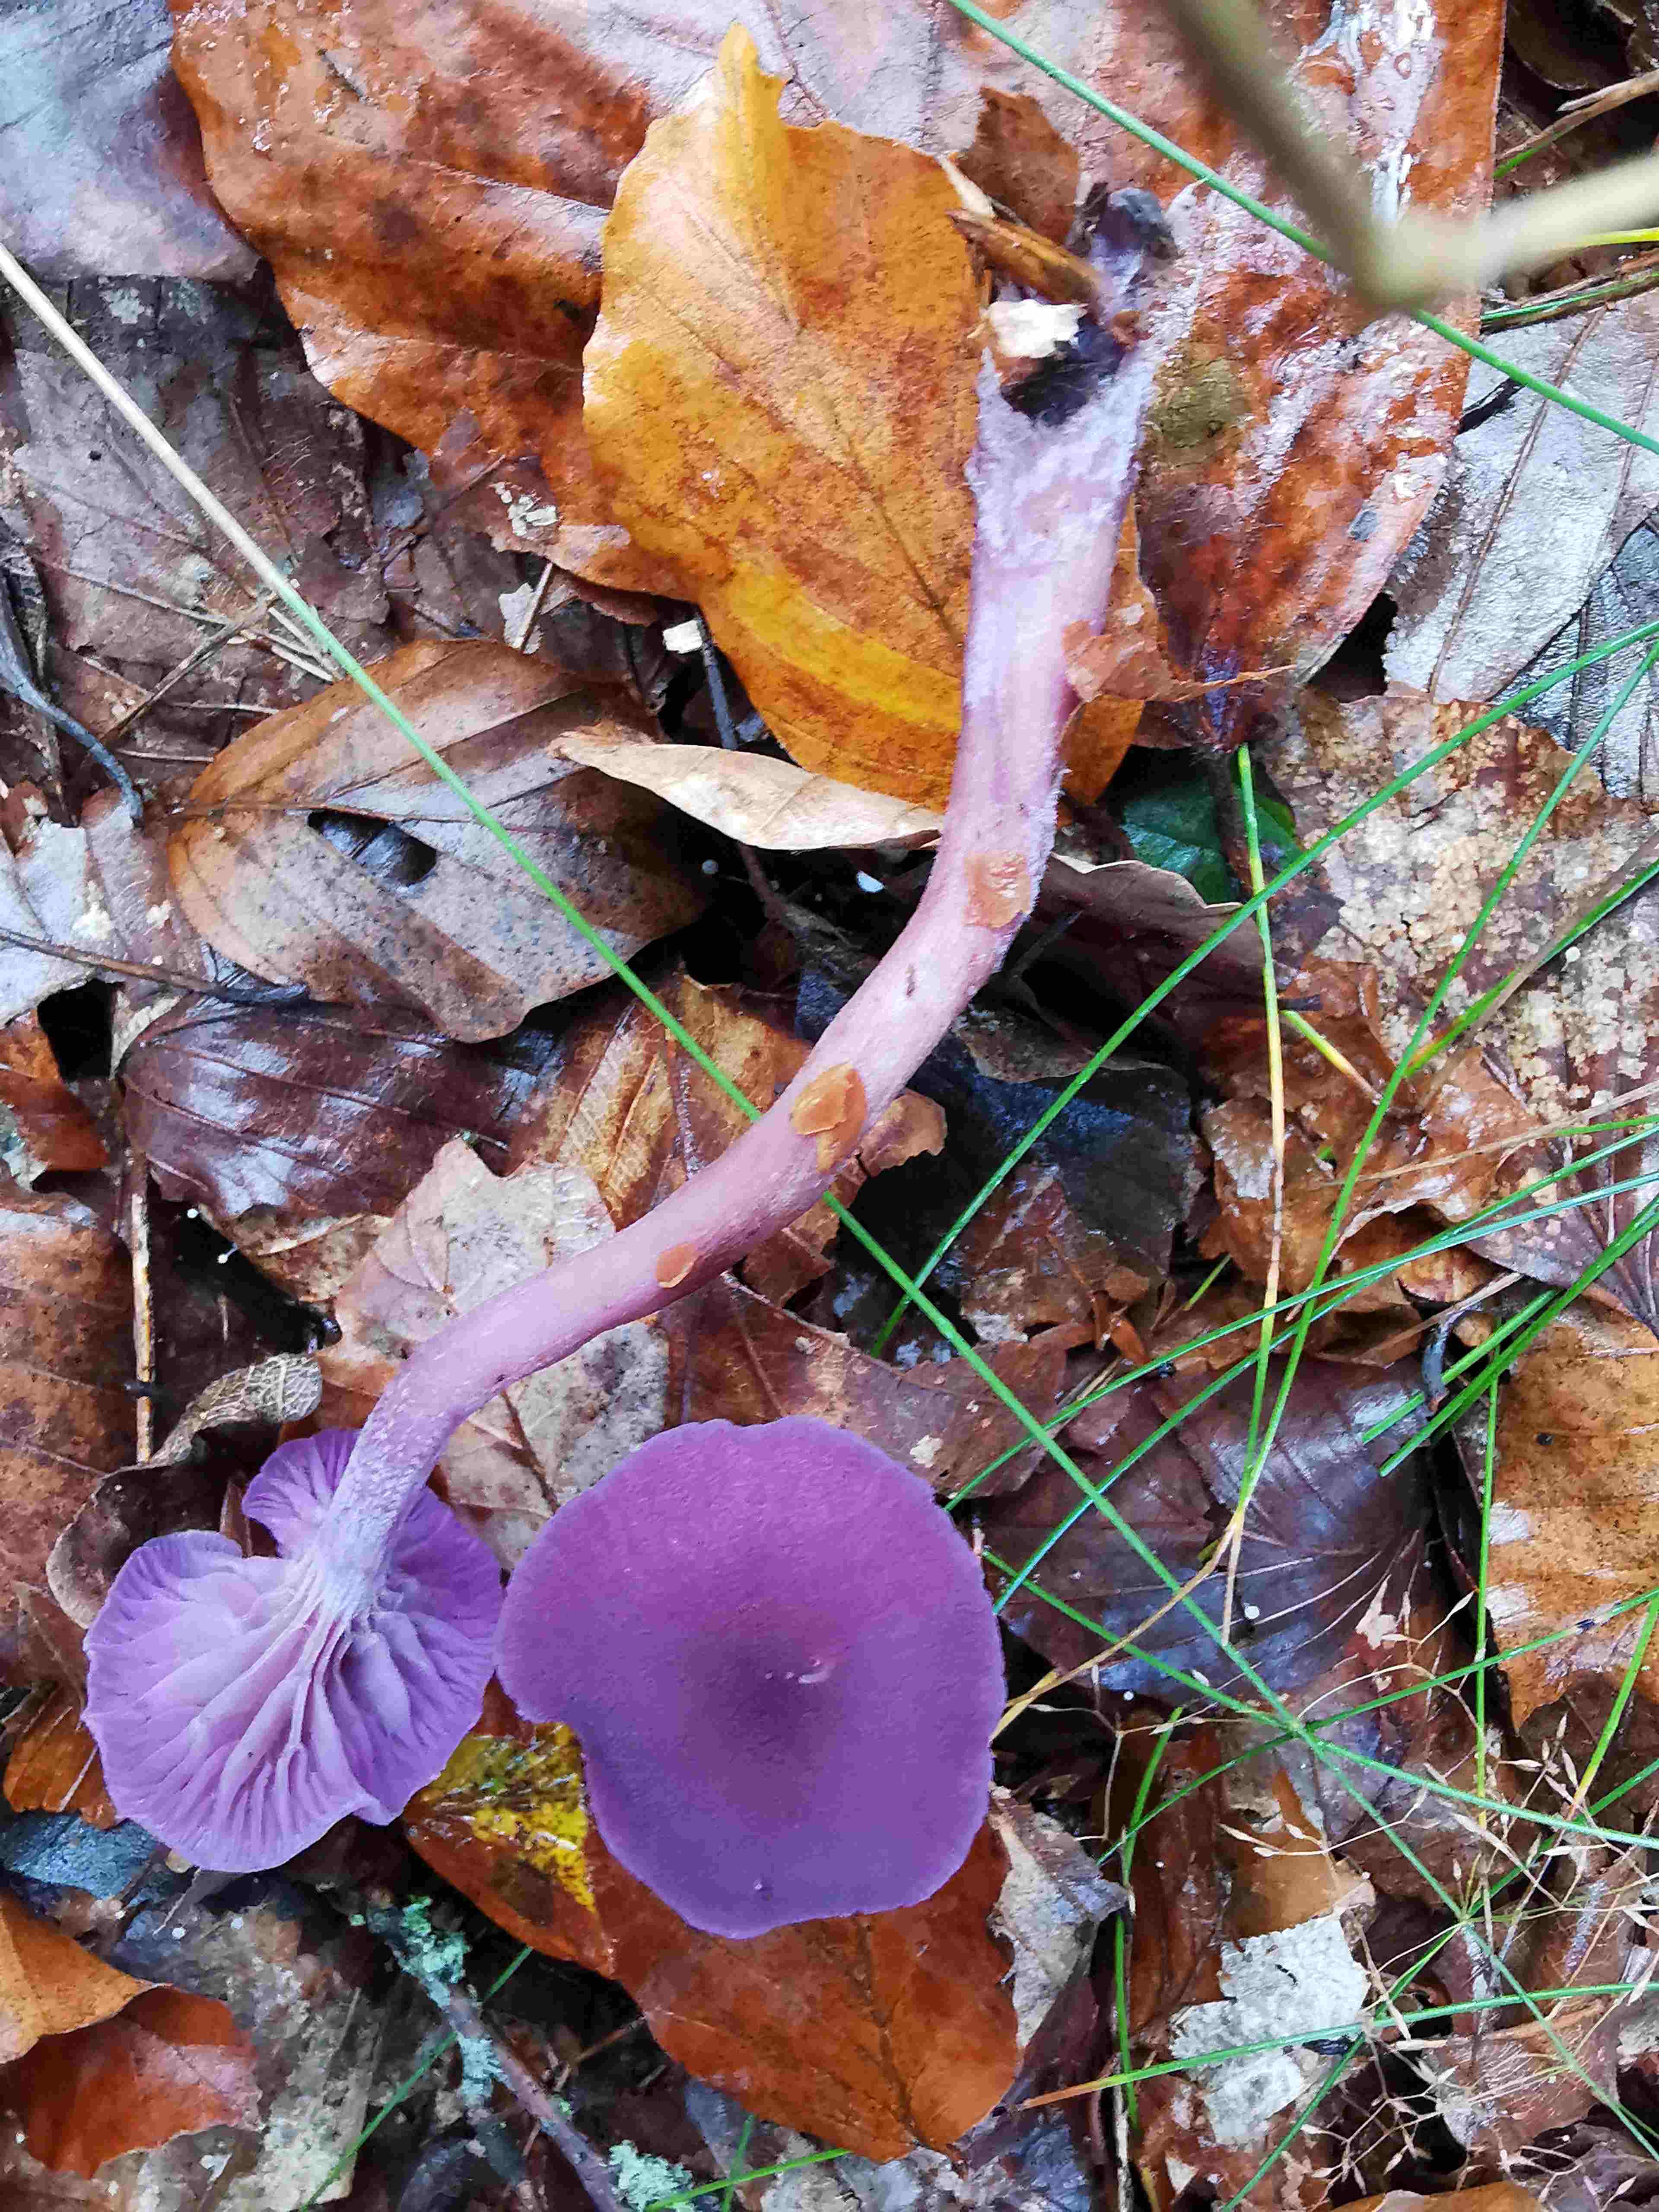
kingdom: Fungi
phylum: Basidiomycota
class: Agaricomycetes
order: Agaricales
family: Hydnangiaceae
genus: Laccaria
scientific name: Laccaria amethystina
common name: violet ametysthat
